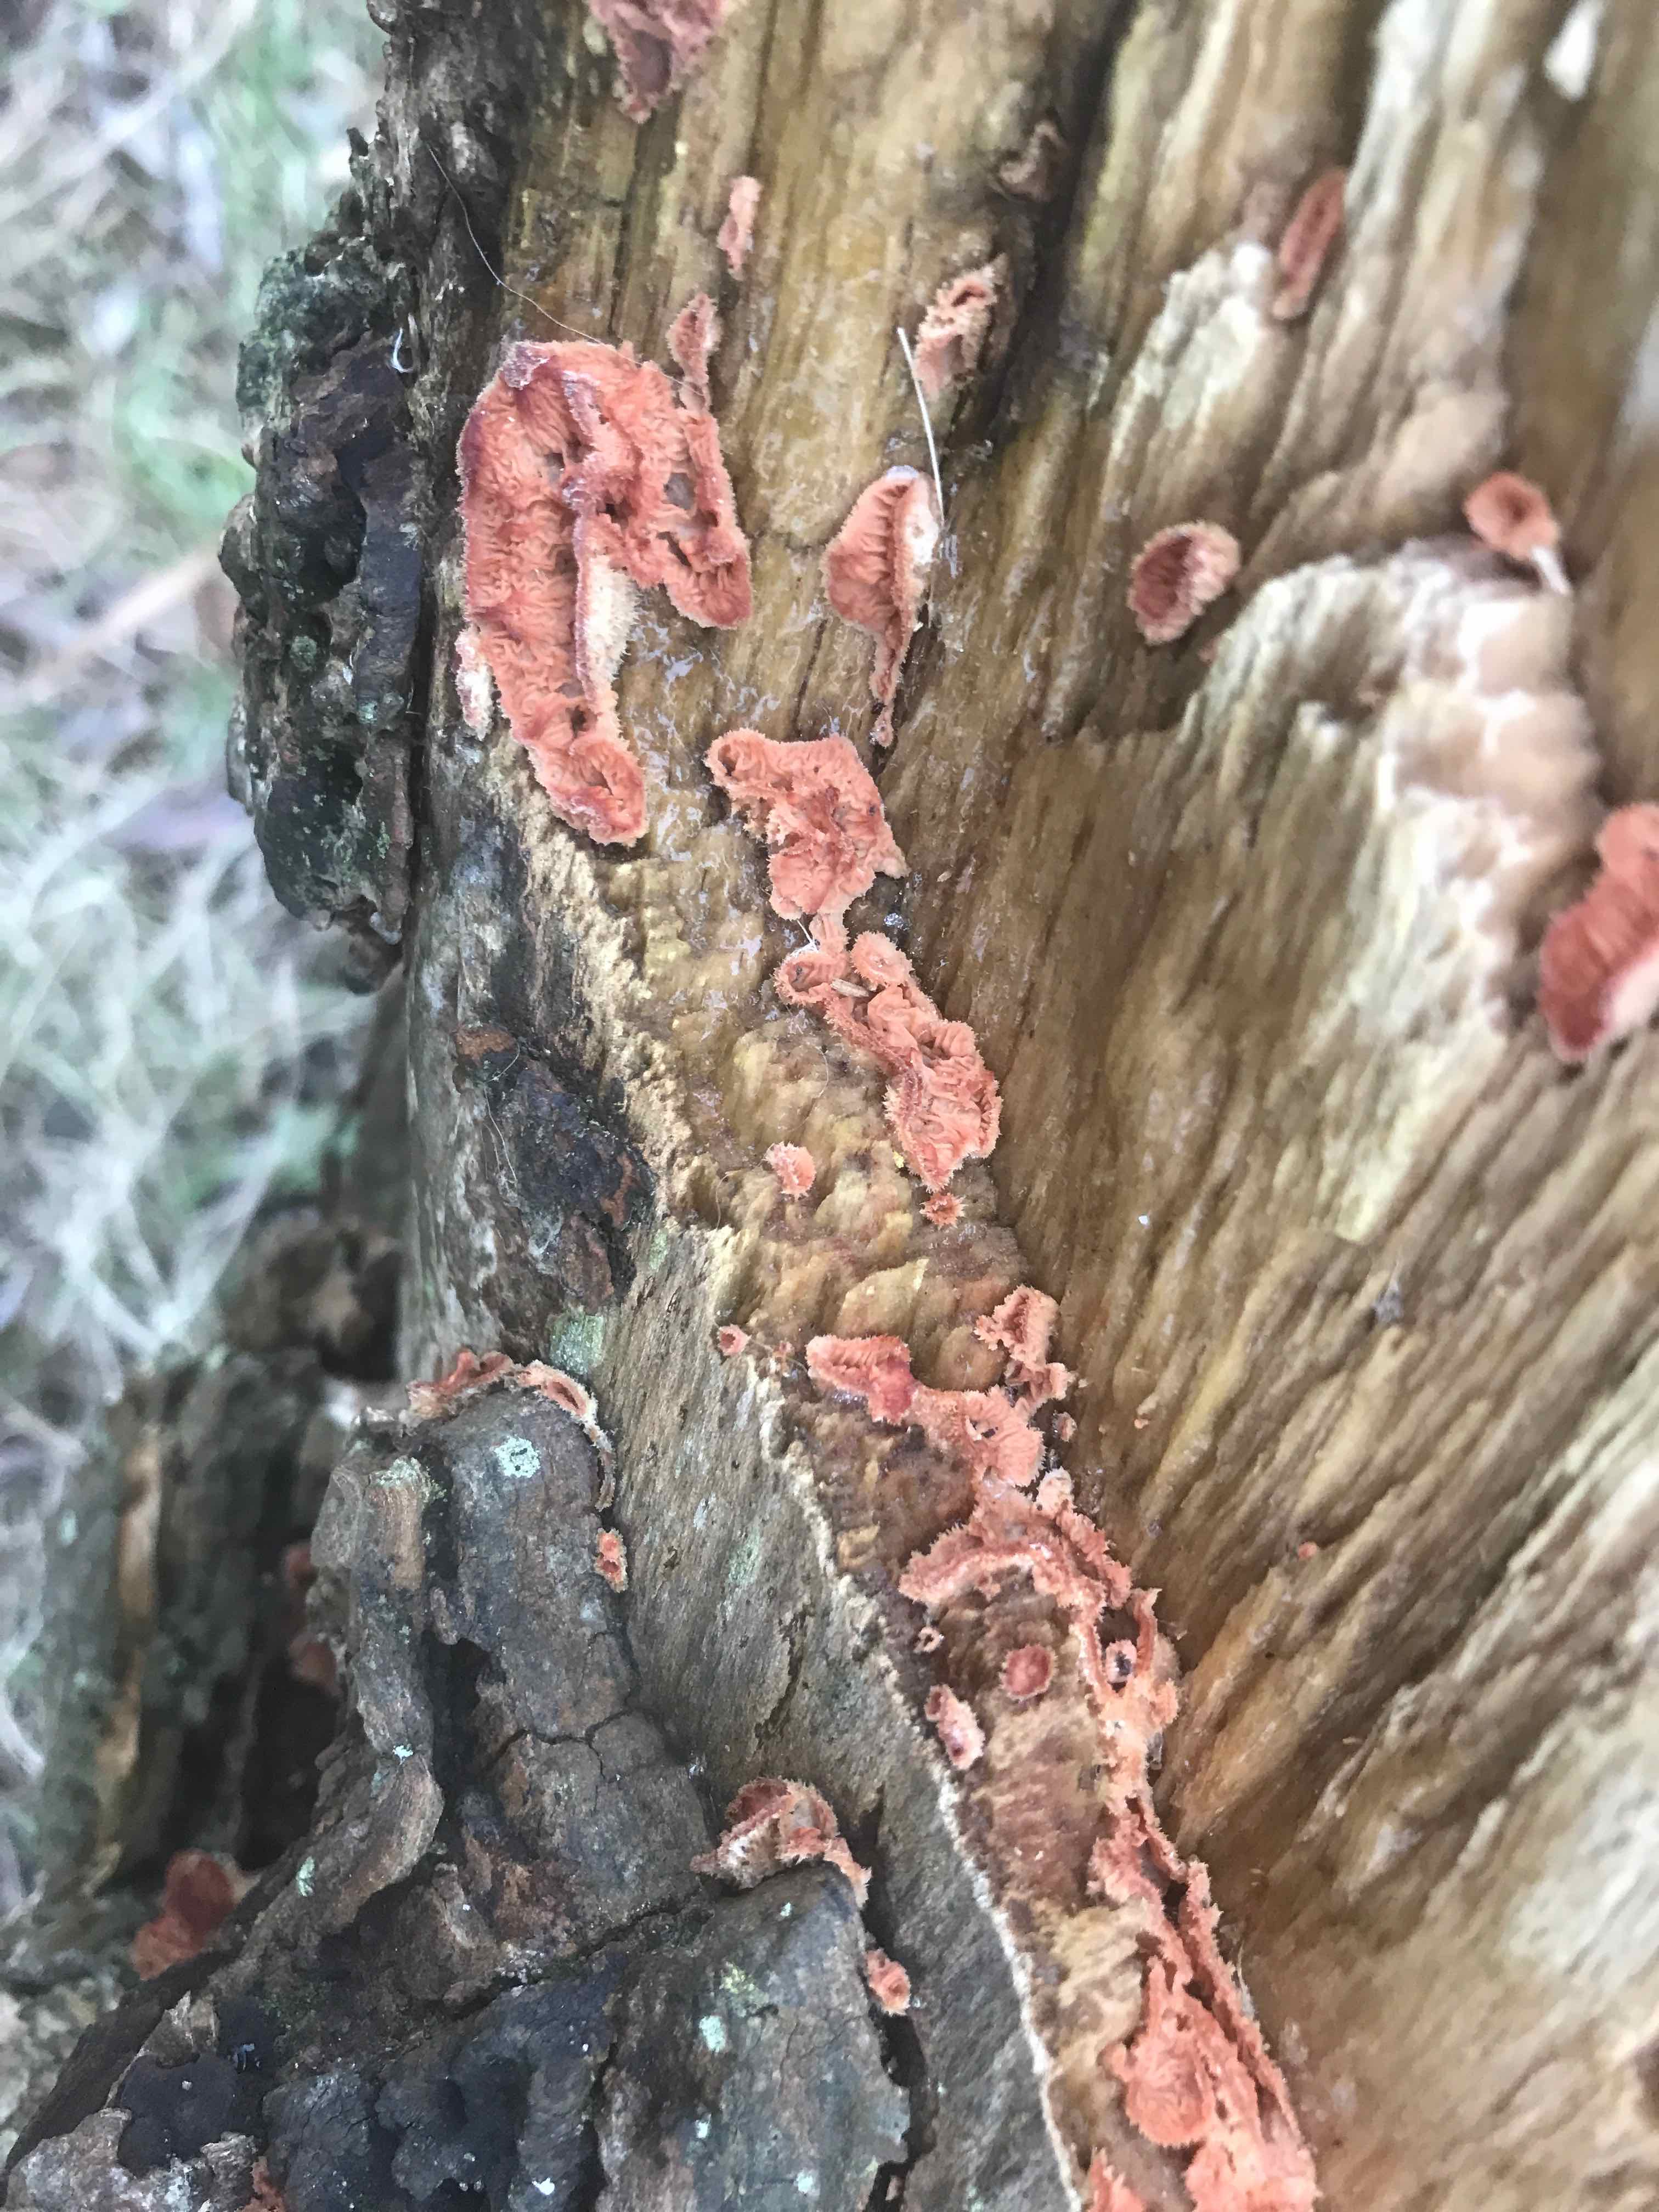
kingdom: Fungi
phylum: Basidiomycota
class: Agaricomycetes
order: Polyporales
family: Meruliaceae
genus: Phlebia
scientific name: Phlebia tremellosa
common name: bævrende åresvamp
